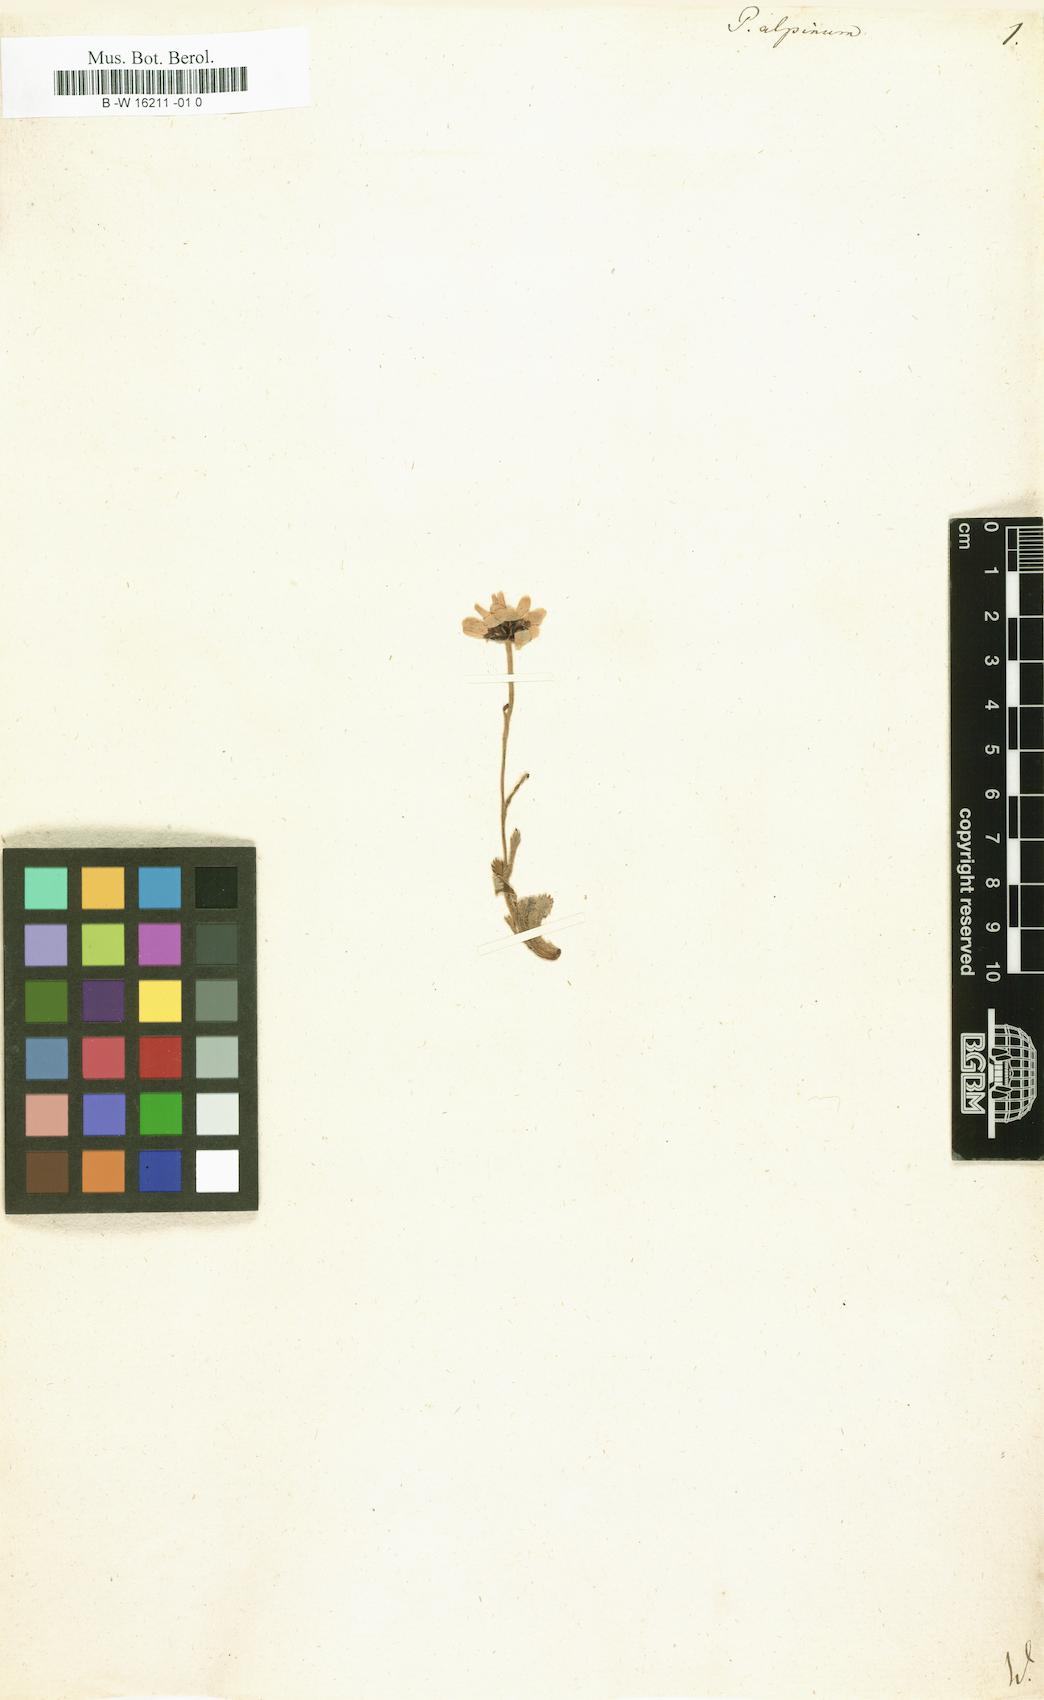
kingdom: Plantae
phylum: Tracheophyta
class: Magnoliopsida
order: Asterales
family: Asteraceae
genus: Tanacetum
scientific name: Tanacetum Pyrethrum alpinum
